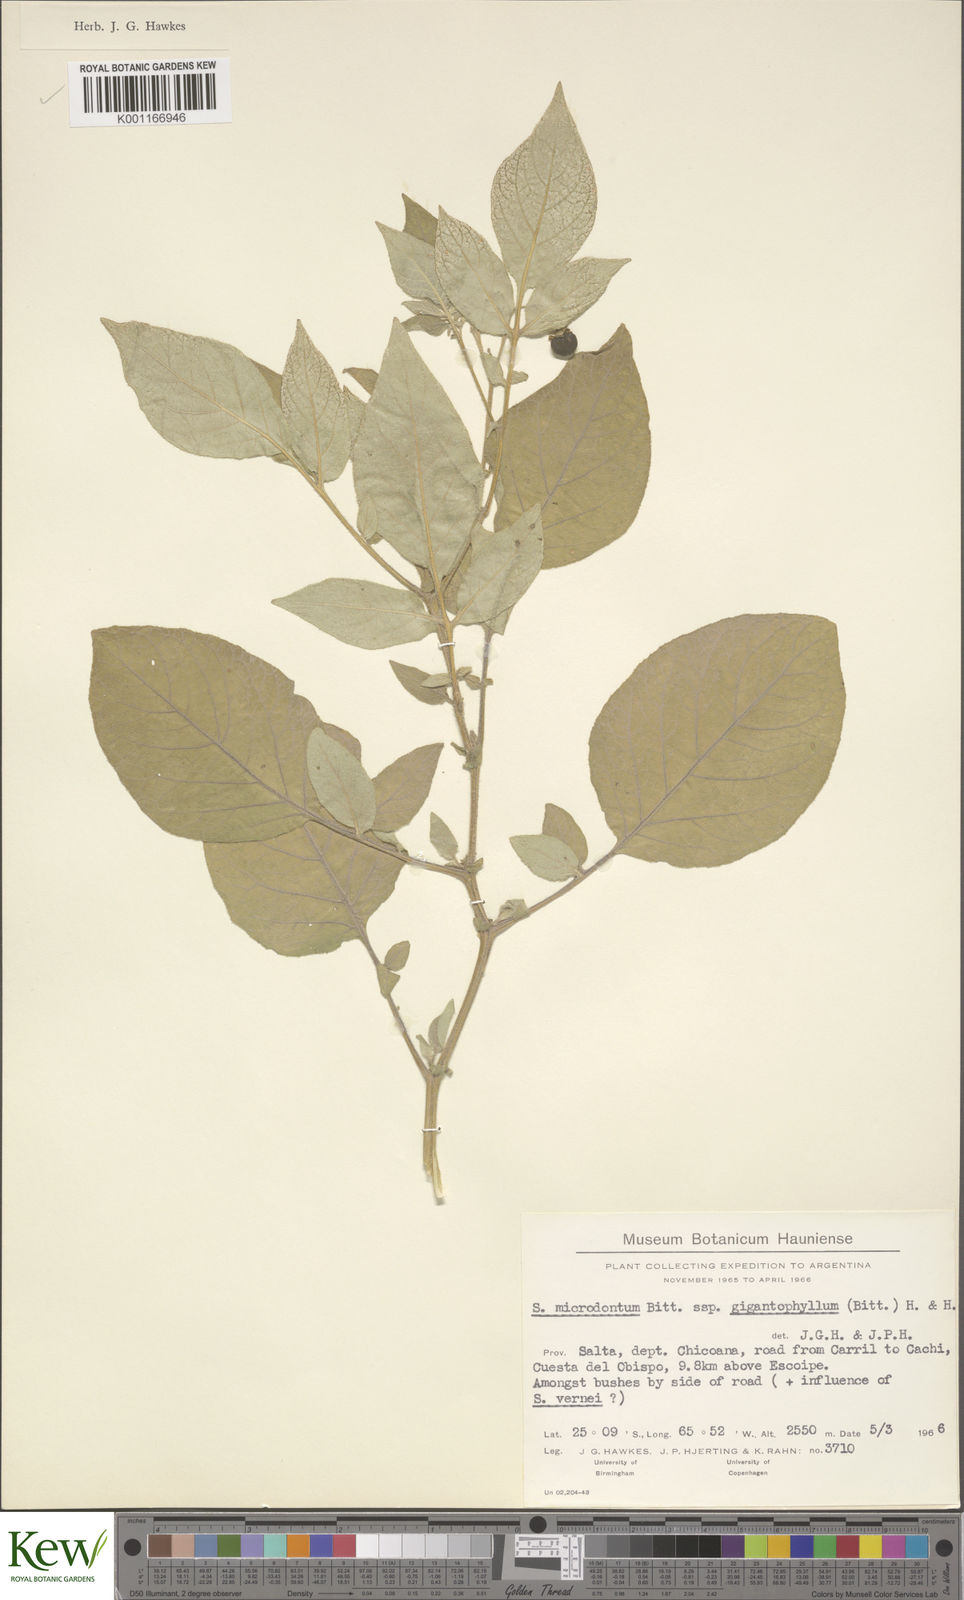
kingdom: Plantae
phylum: Tracheophyta
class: Magnoliopsida
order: Solanales
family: Solanaceae
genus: Solanum
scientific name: Solanum microdontum
